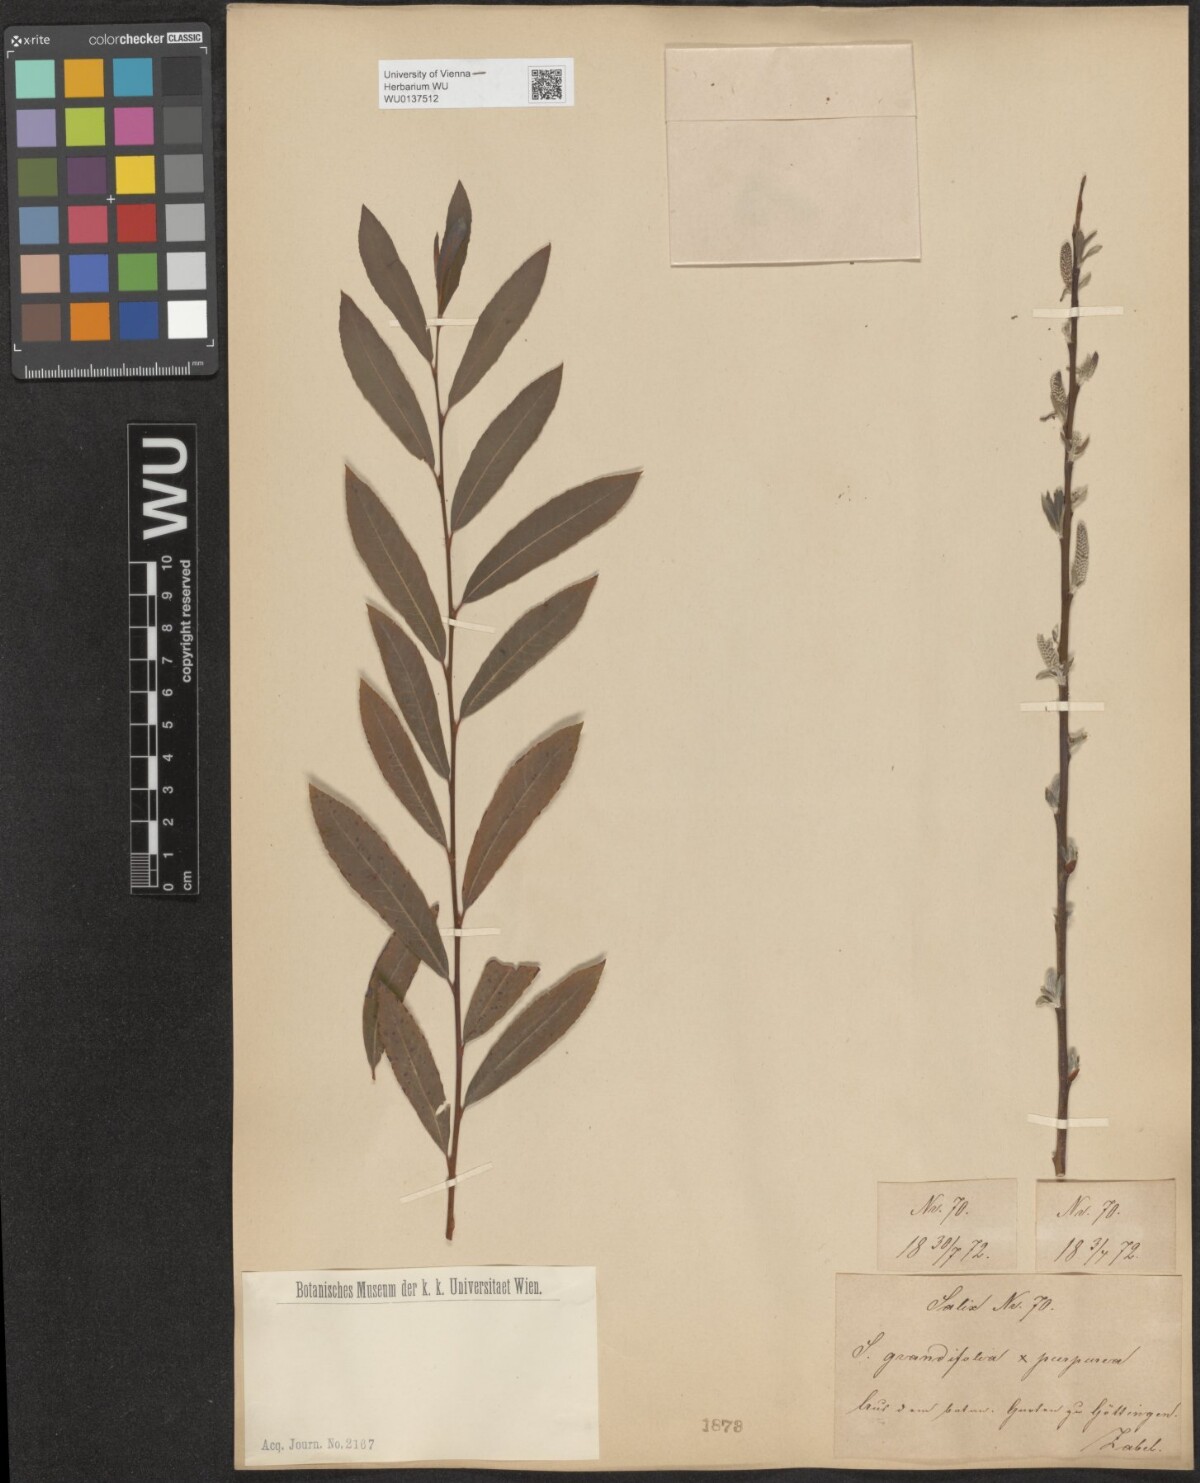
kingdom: Plantae
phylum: Tracheophyta
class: Magnoliopsida
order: Malpighiales
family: Salicaceae
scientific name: Salicaceae
